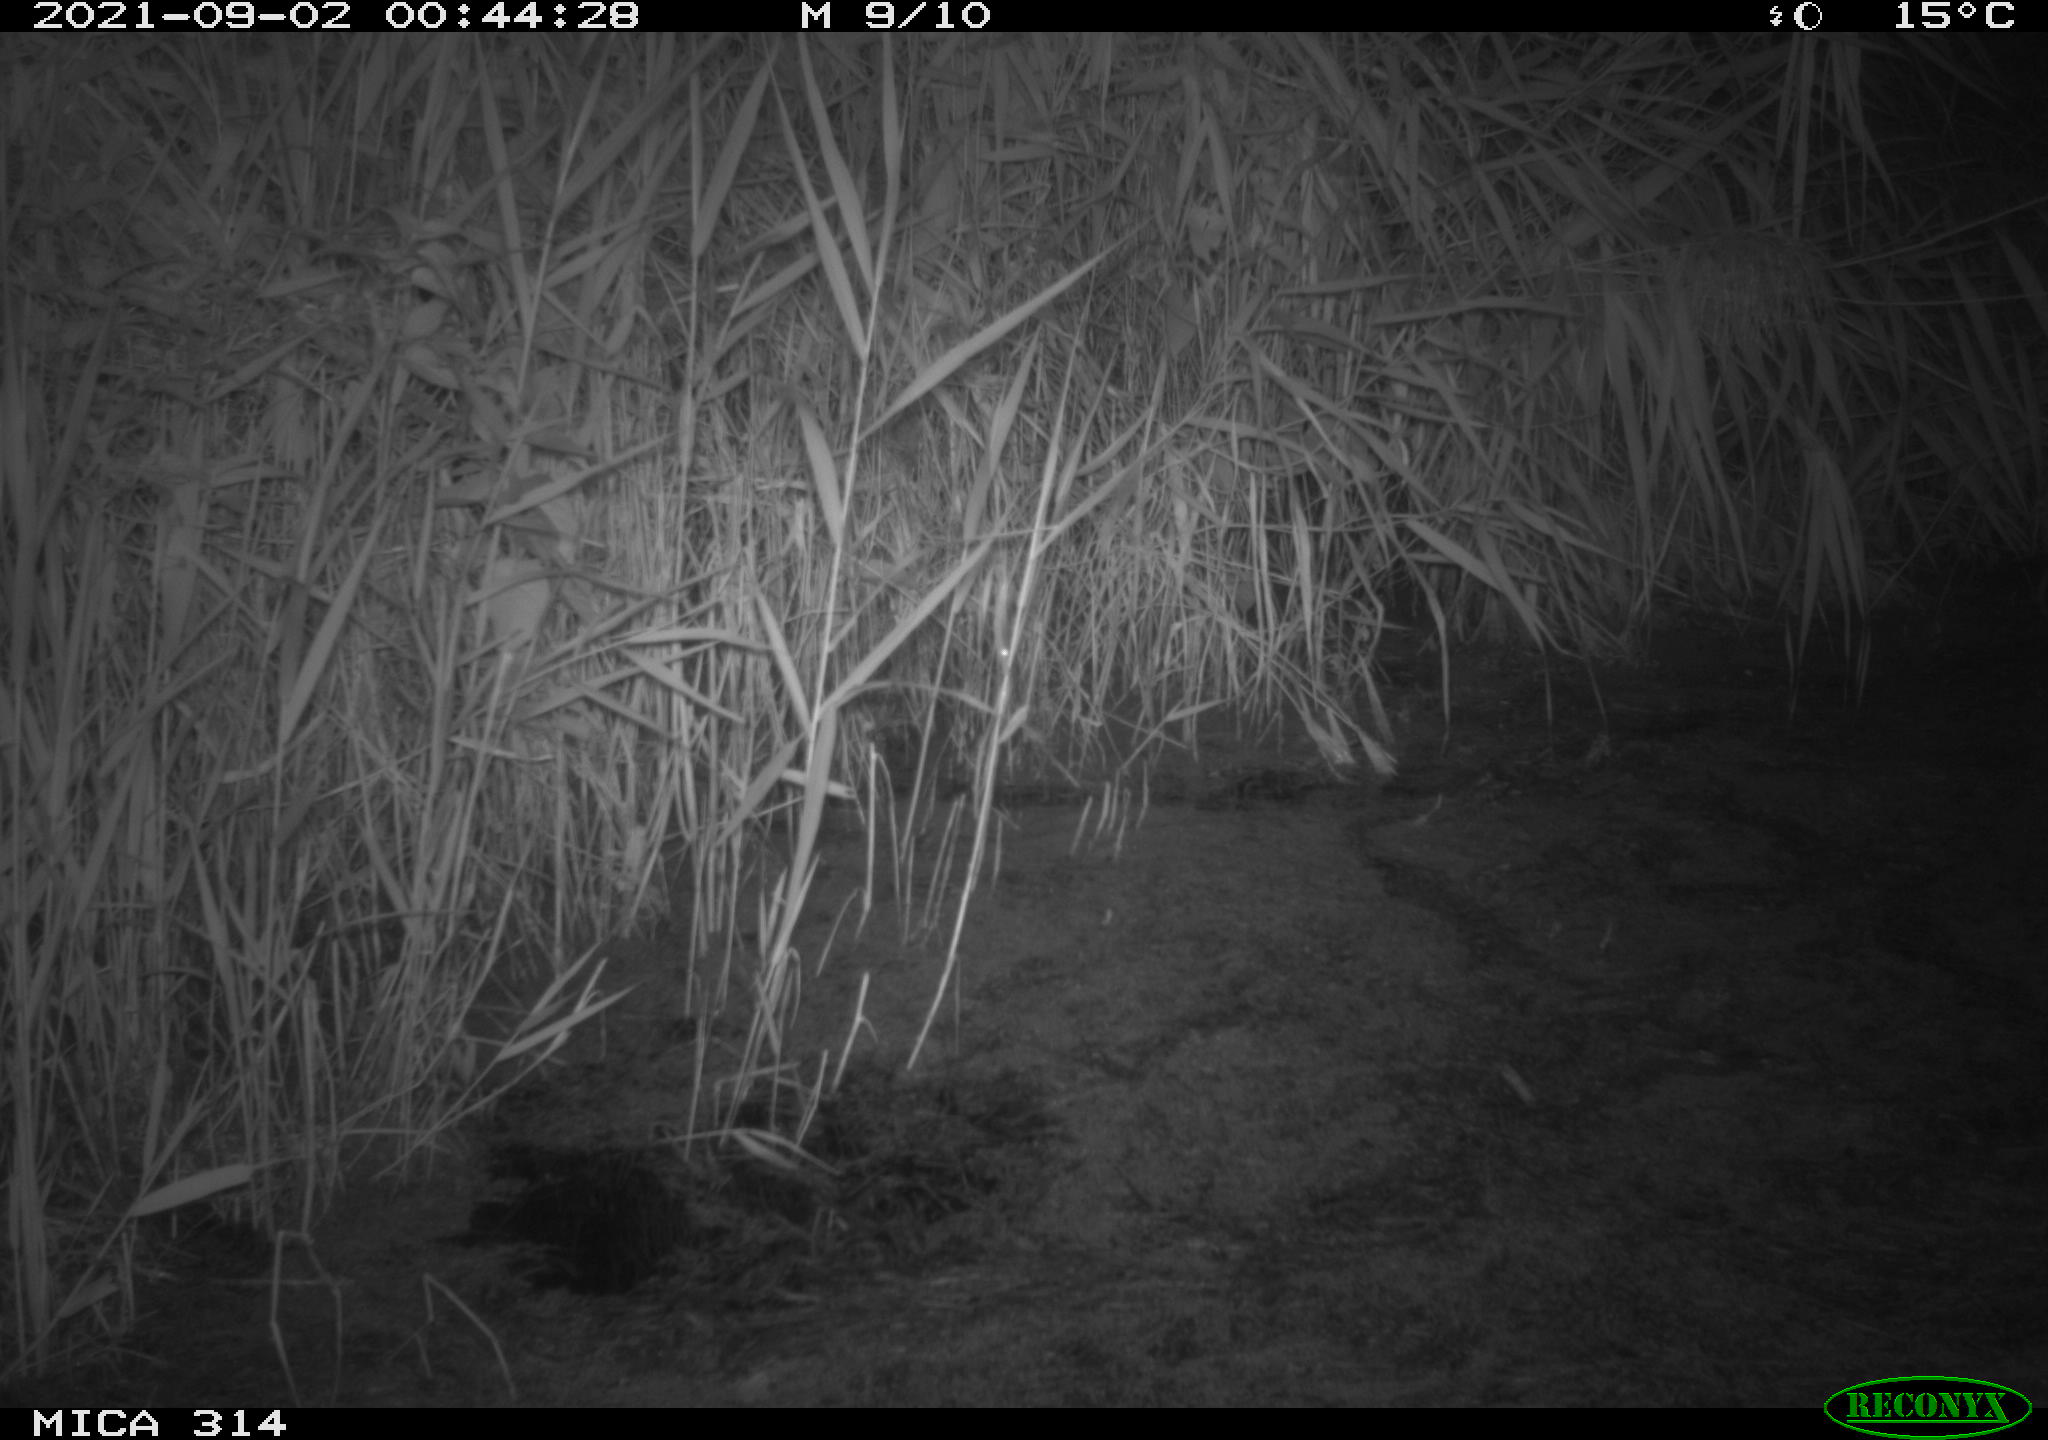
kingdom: Animalia
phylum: Chordata
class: Mammalia
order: Rodentia
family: Muridae
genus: Rattus
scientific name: Rattus norvegicus
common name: Brown rat
